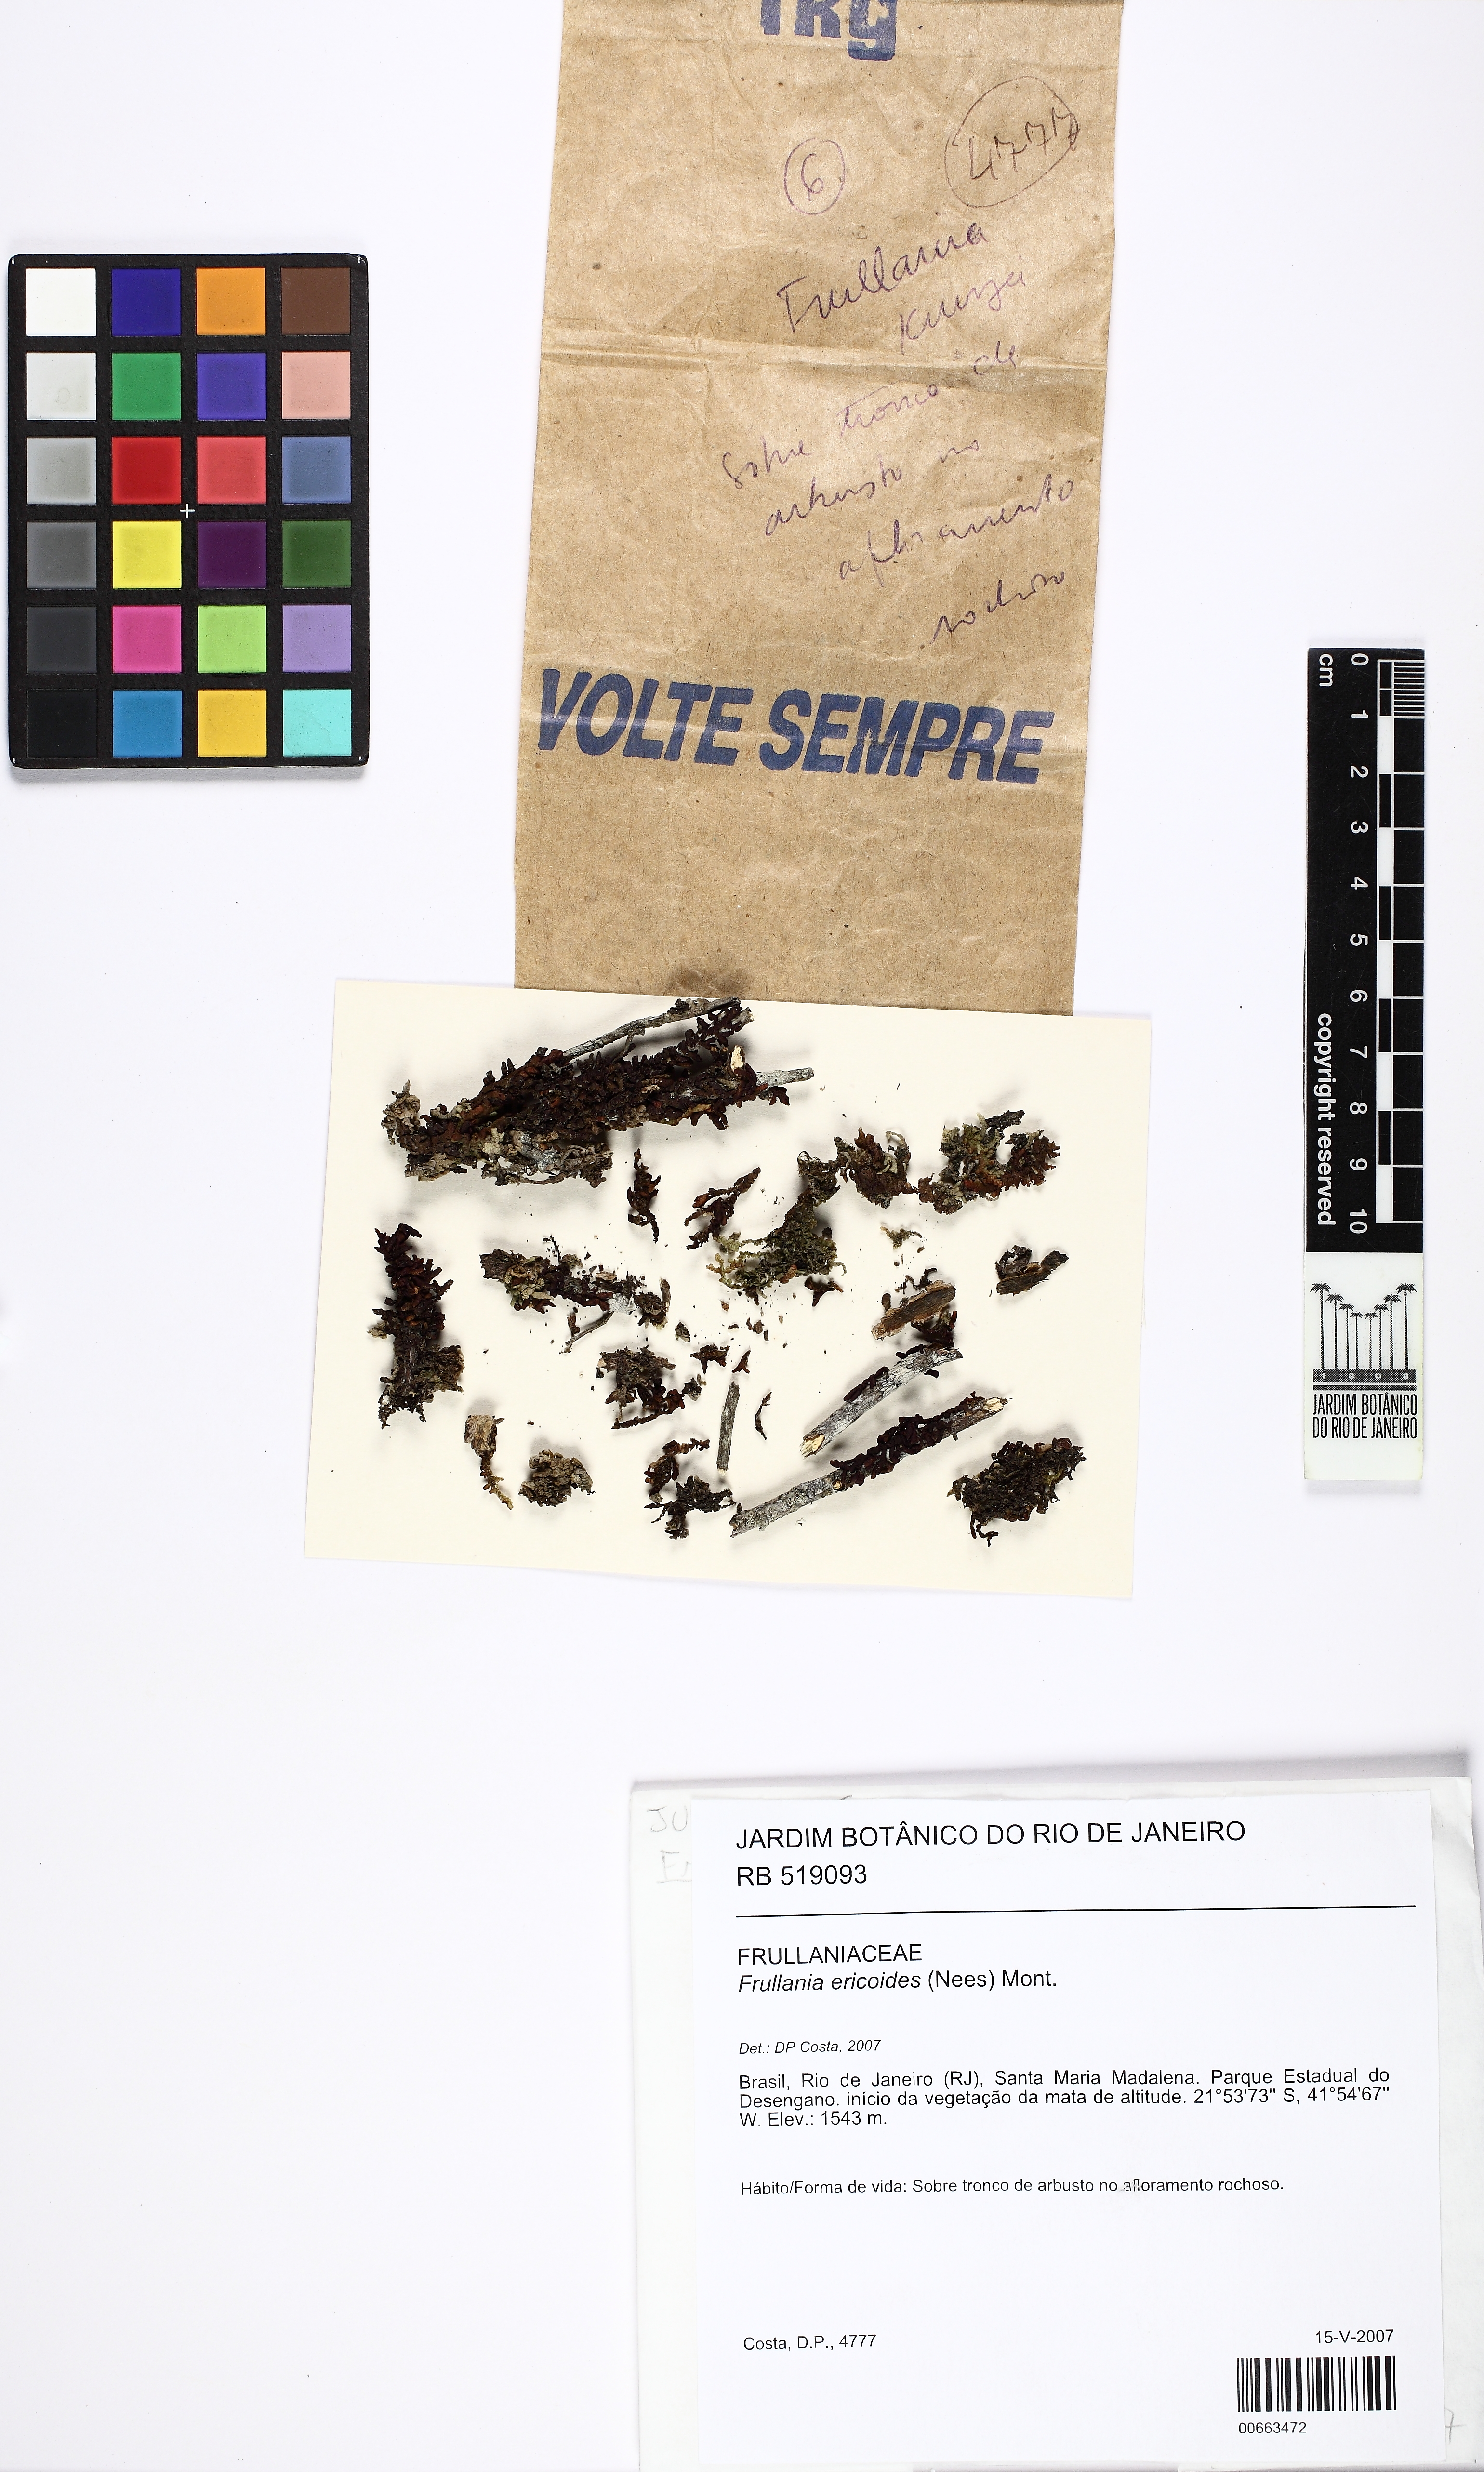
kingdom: Plantae
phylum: Marchantiophyta
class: Jungermanniopsida
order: Porellales
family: Frullaniaceae
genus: Frullania
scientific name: Frullania ericoides
